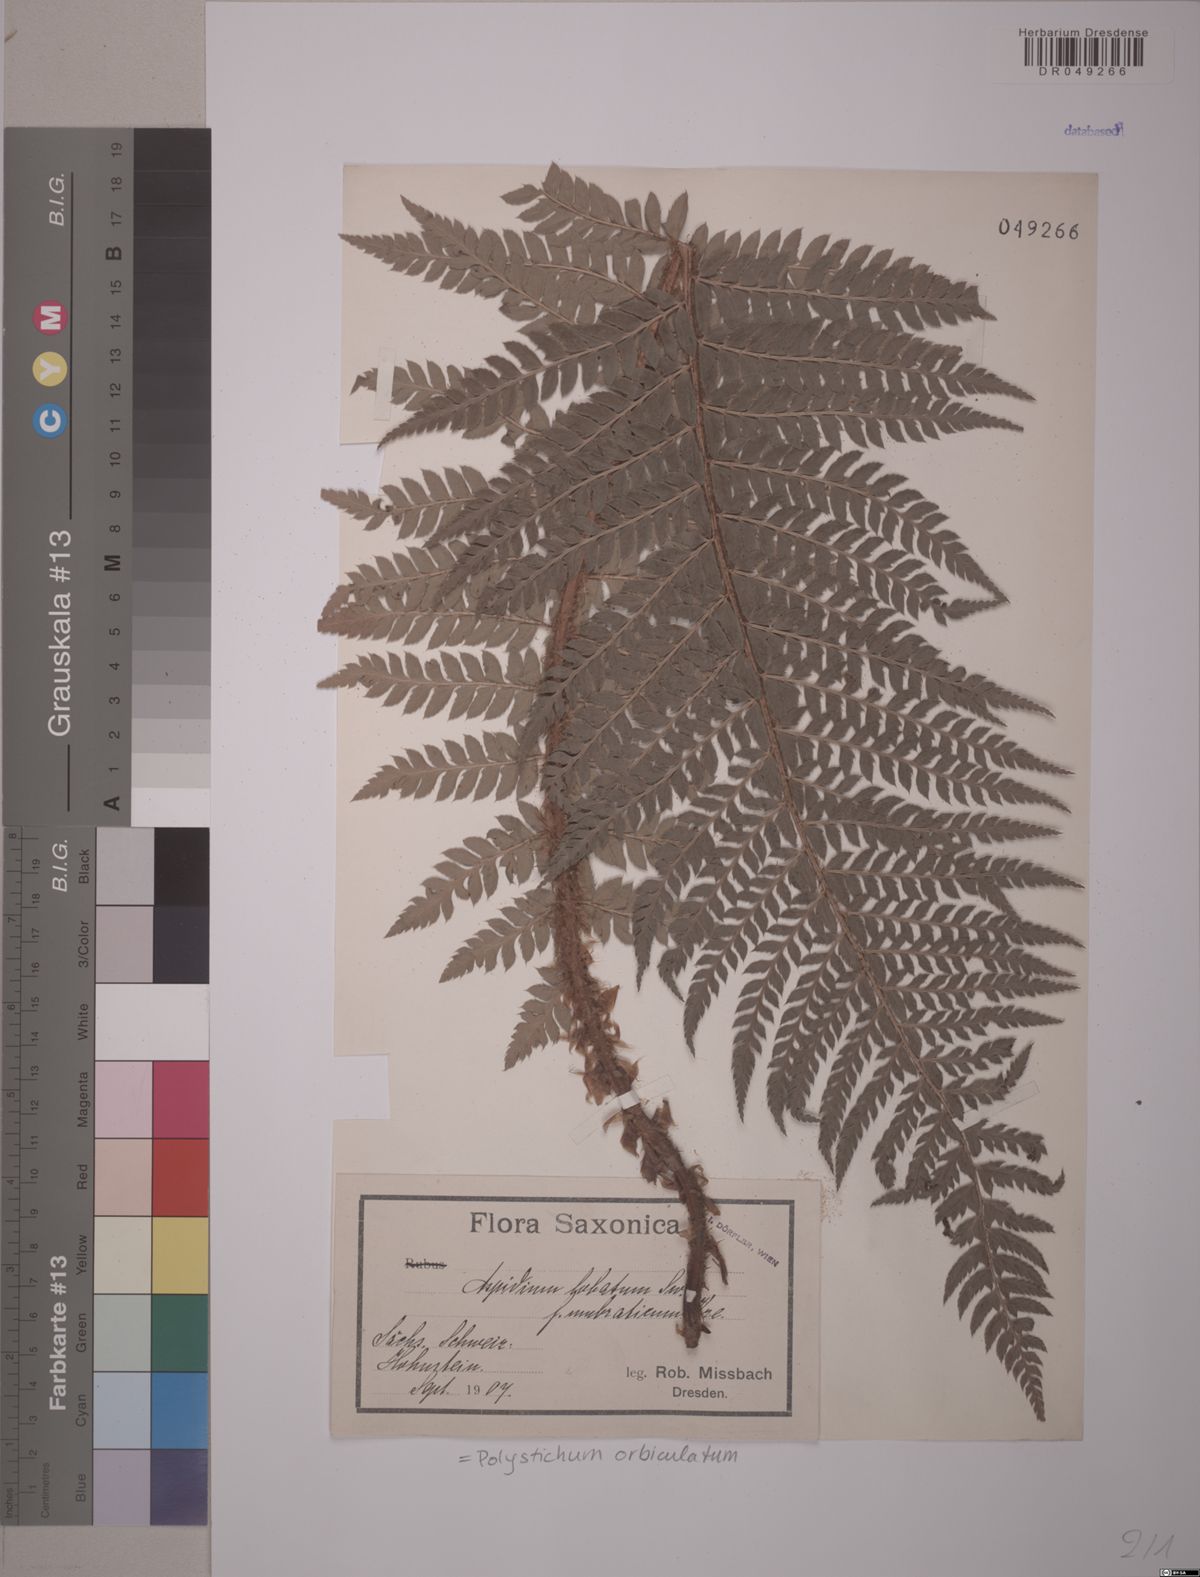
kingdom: Plantae
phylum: Tracheophyta
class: Polypodiopsida
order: Polypodiales
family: Dryopteridaceae
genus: Polystichum
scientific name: Polystichum aculeatum
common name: Hard shield-fern
